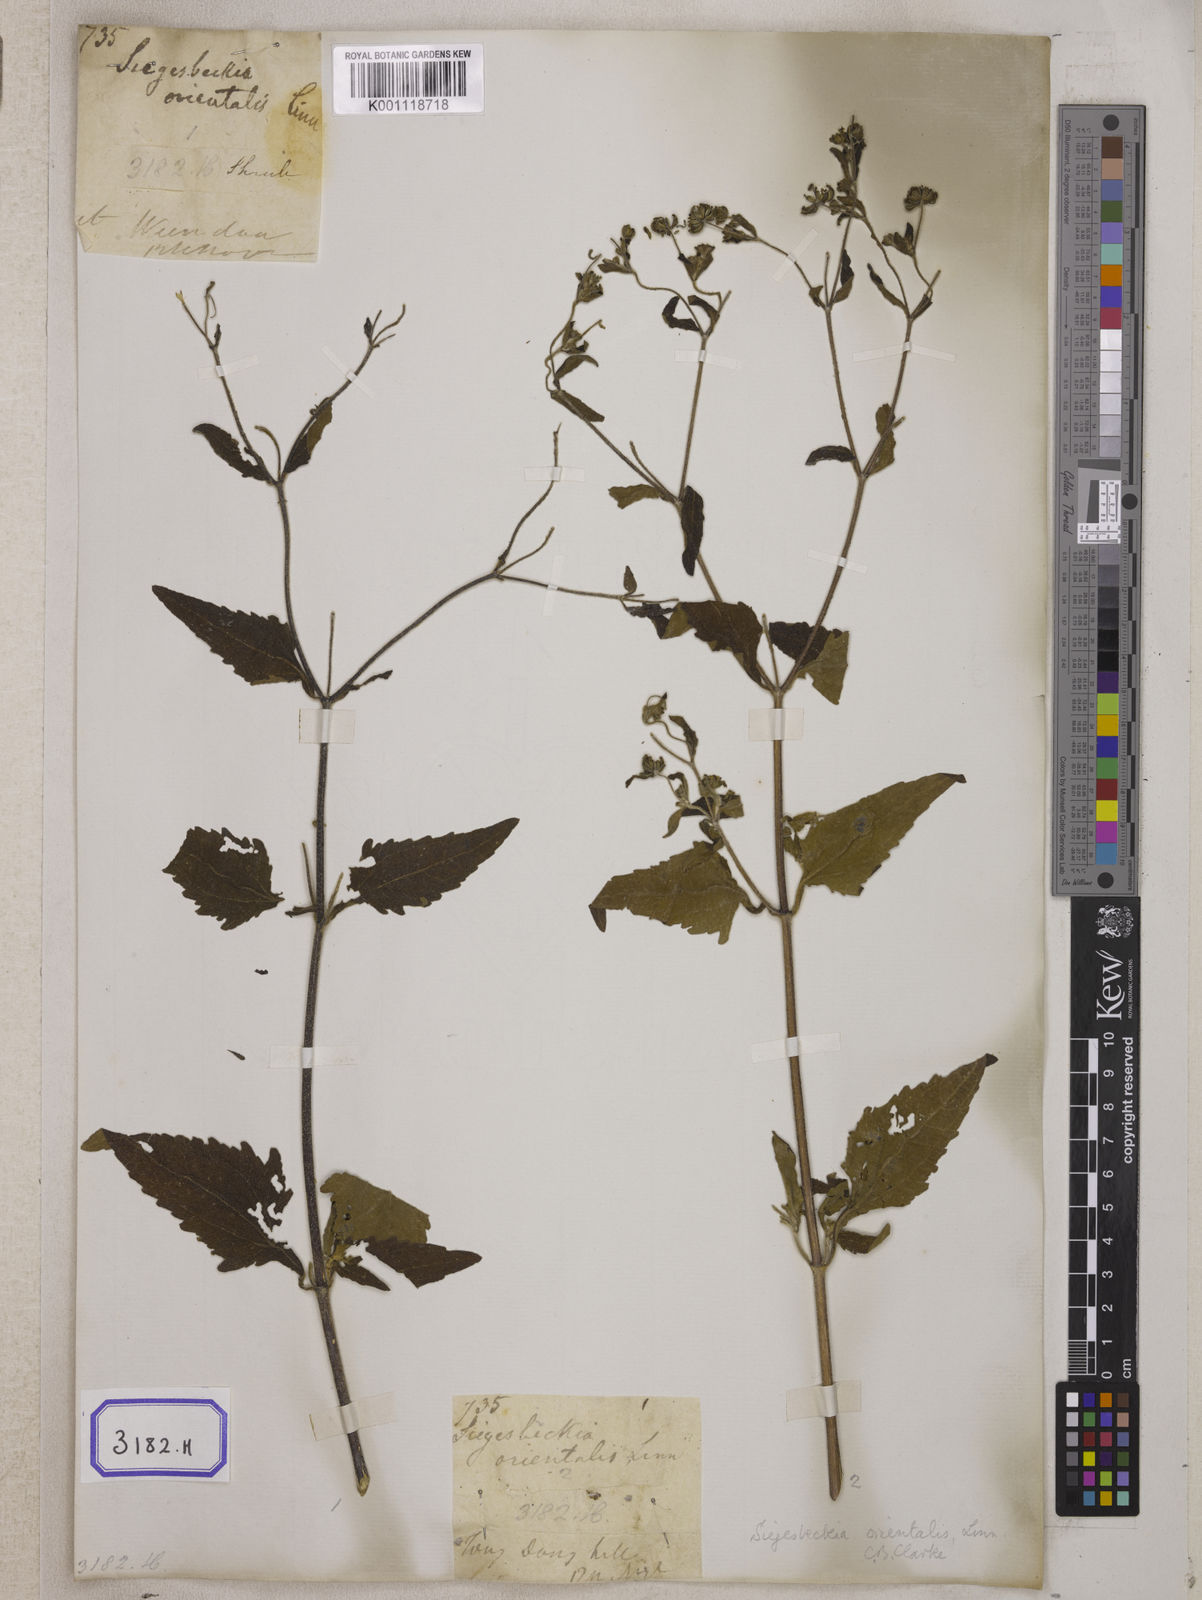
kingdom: Plantae
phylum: Tracheophyta
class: Magnoliopsida
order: Asterales
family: Asteraceae
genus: Sigesbeckia
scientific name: Sigesbeckia orientalis
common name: Eastern st paul's-wort
